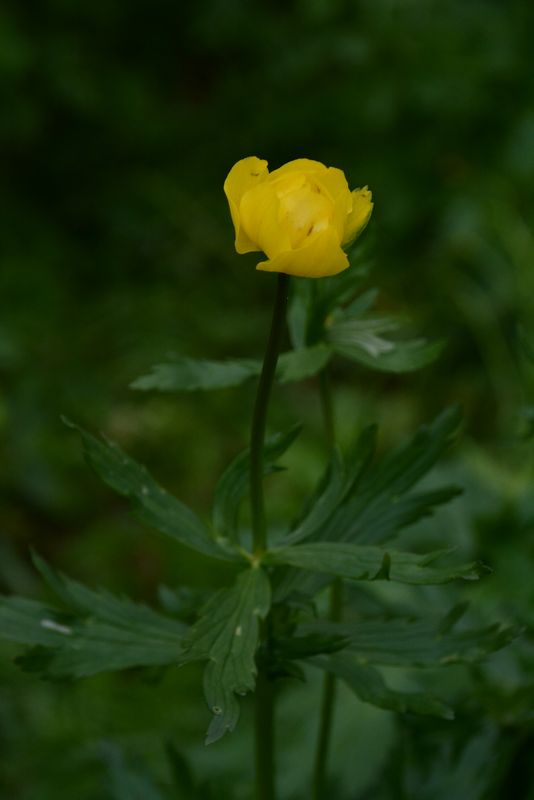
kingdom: Plantae
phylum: Tracheophyta
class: Magnoliopsida
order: Ranunculales
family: Ranunculaceae
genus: Trollius
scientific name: Trollius europaeus
